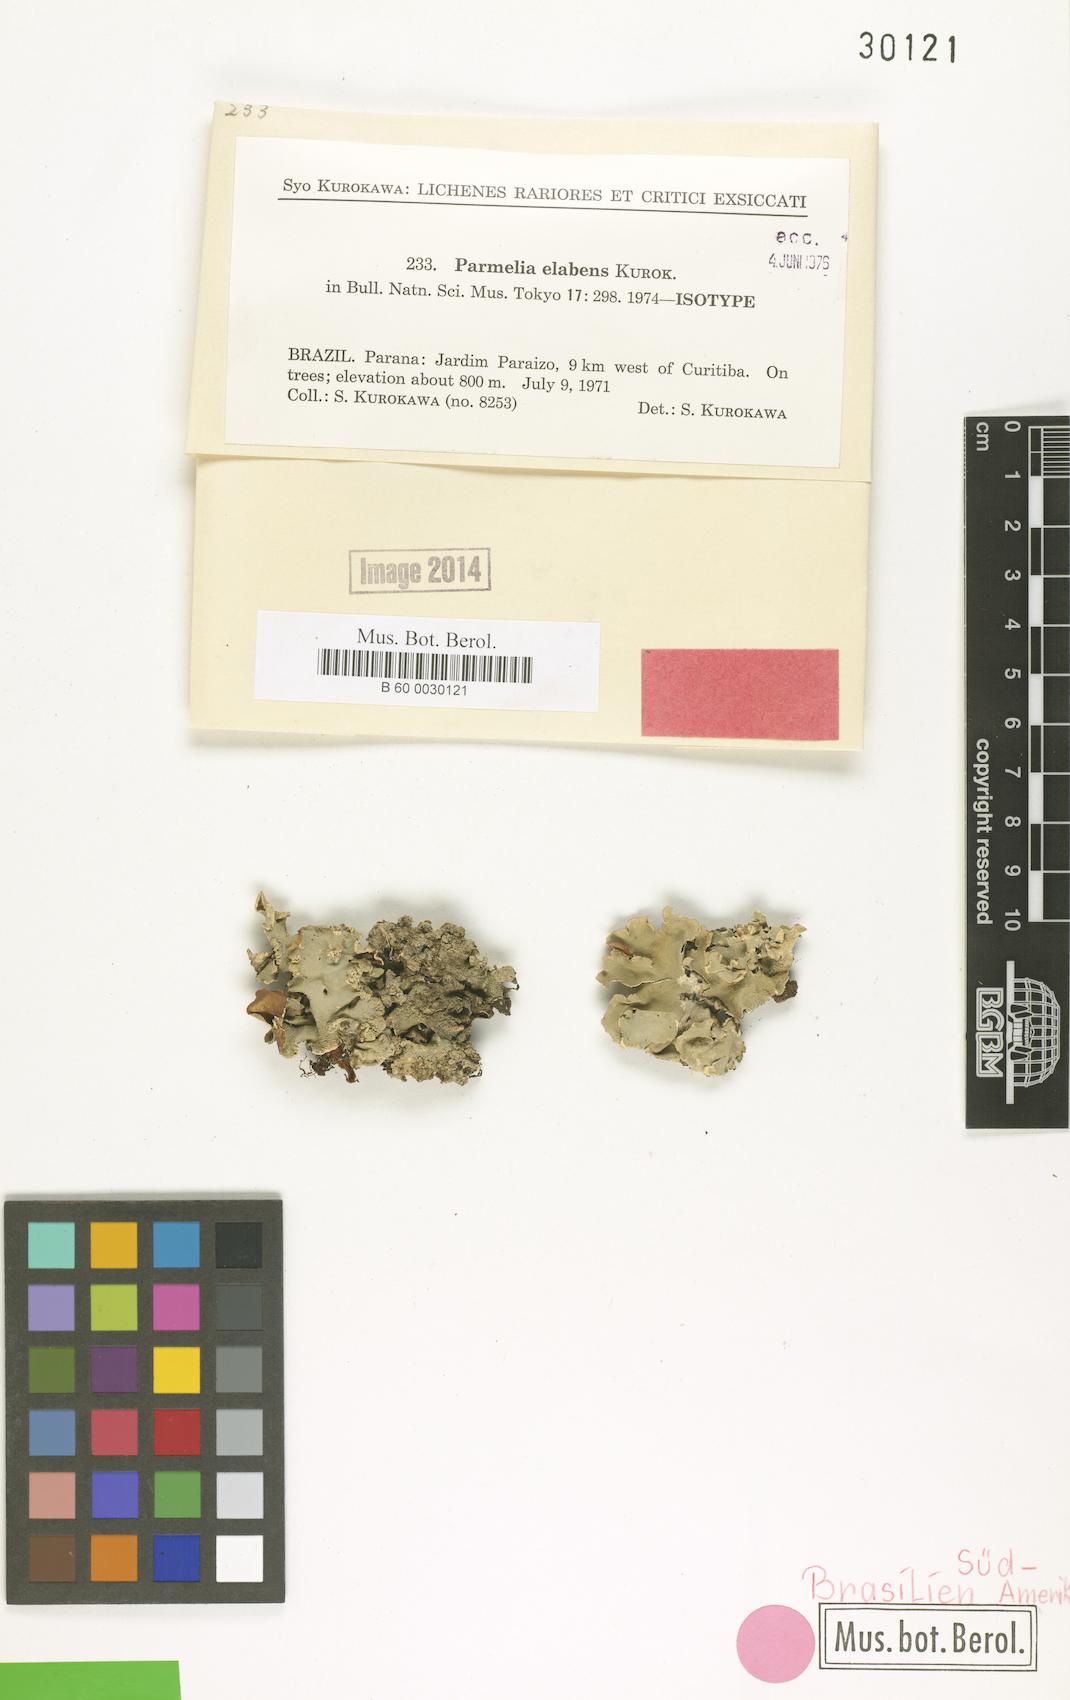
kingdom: Fungi
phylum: Ascomycota
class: Lecanoromycetes
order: Lecanorales
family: Parmeliaceae
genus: Parmelia
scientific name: Parmelia elabens
